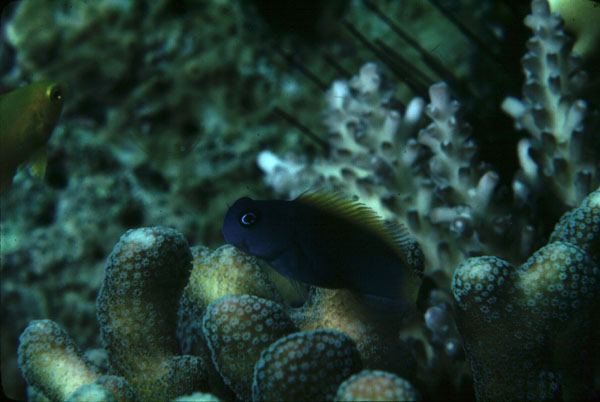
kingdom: Animalia
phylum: Chordata
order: Perciformes
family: Blenniidae
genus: Ecsenius
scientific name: Ecsenius lividanalis
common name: Blue-head combtooth-blenny
